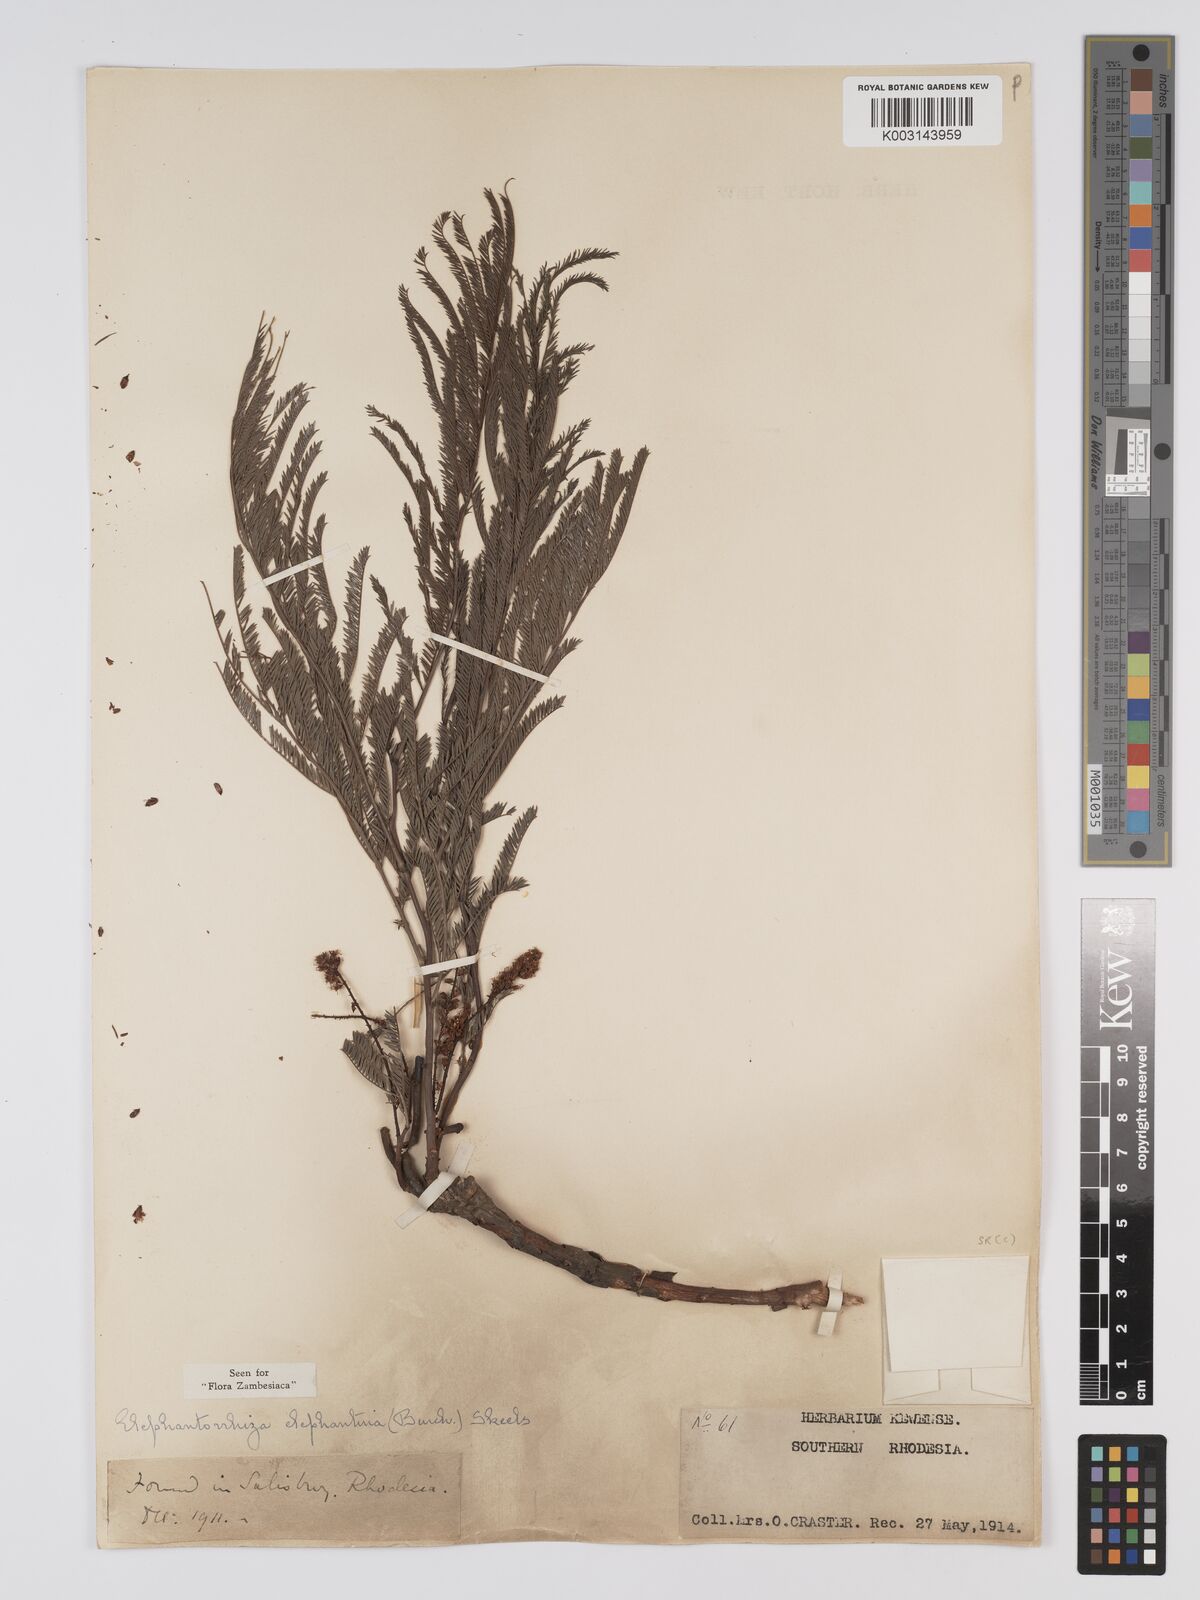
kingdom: Plantae
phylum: Tracheophyta
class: Magnoliopsida
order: Fabales
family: Fabaceae
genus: Elephantorrhiza
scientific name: Elephantorrhiza elephantina
